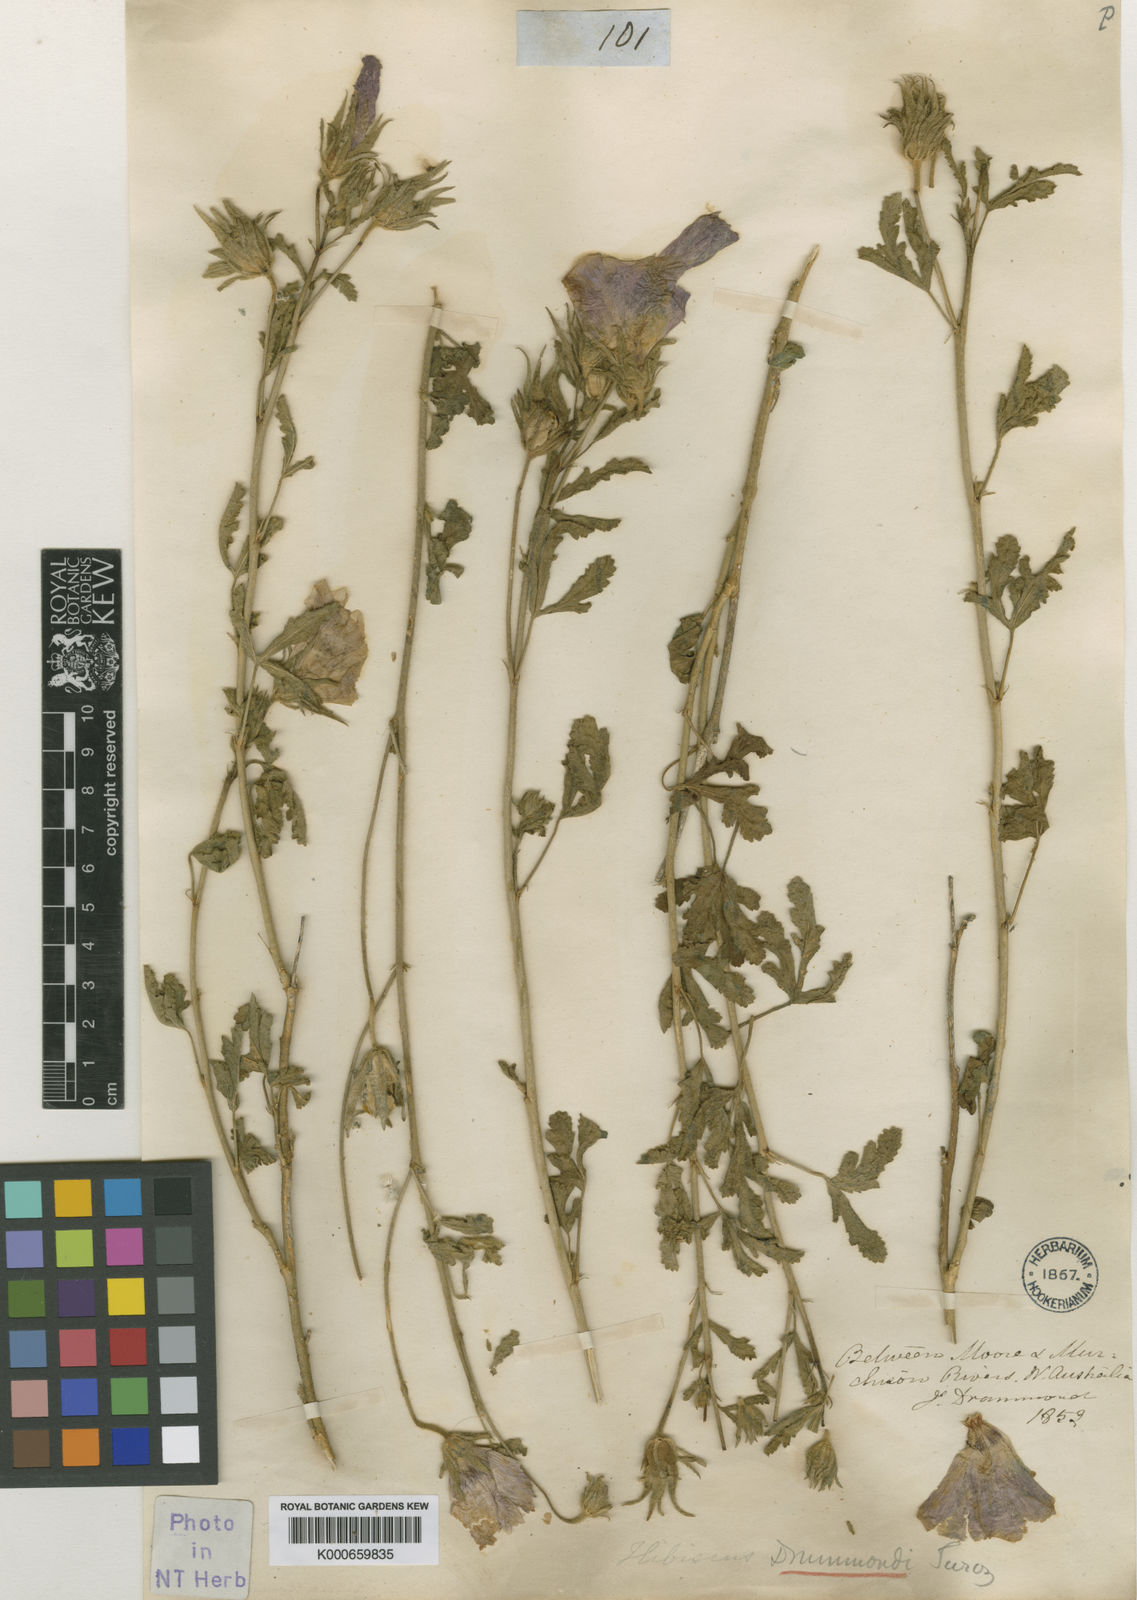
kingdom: Plantae
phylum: Tracheophyta
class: Magnoliopsida
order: Malvales
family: Malvaceae
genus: Hibiscus
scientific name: Hibiscus drummondii
